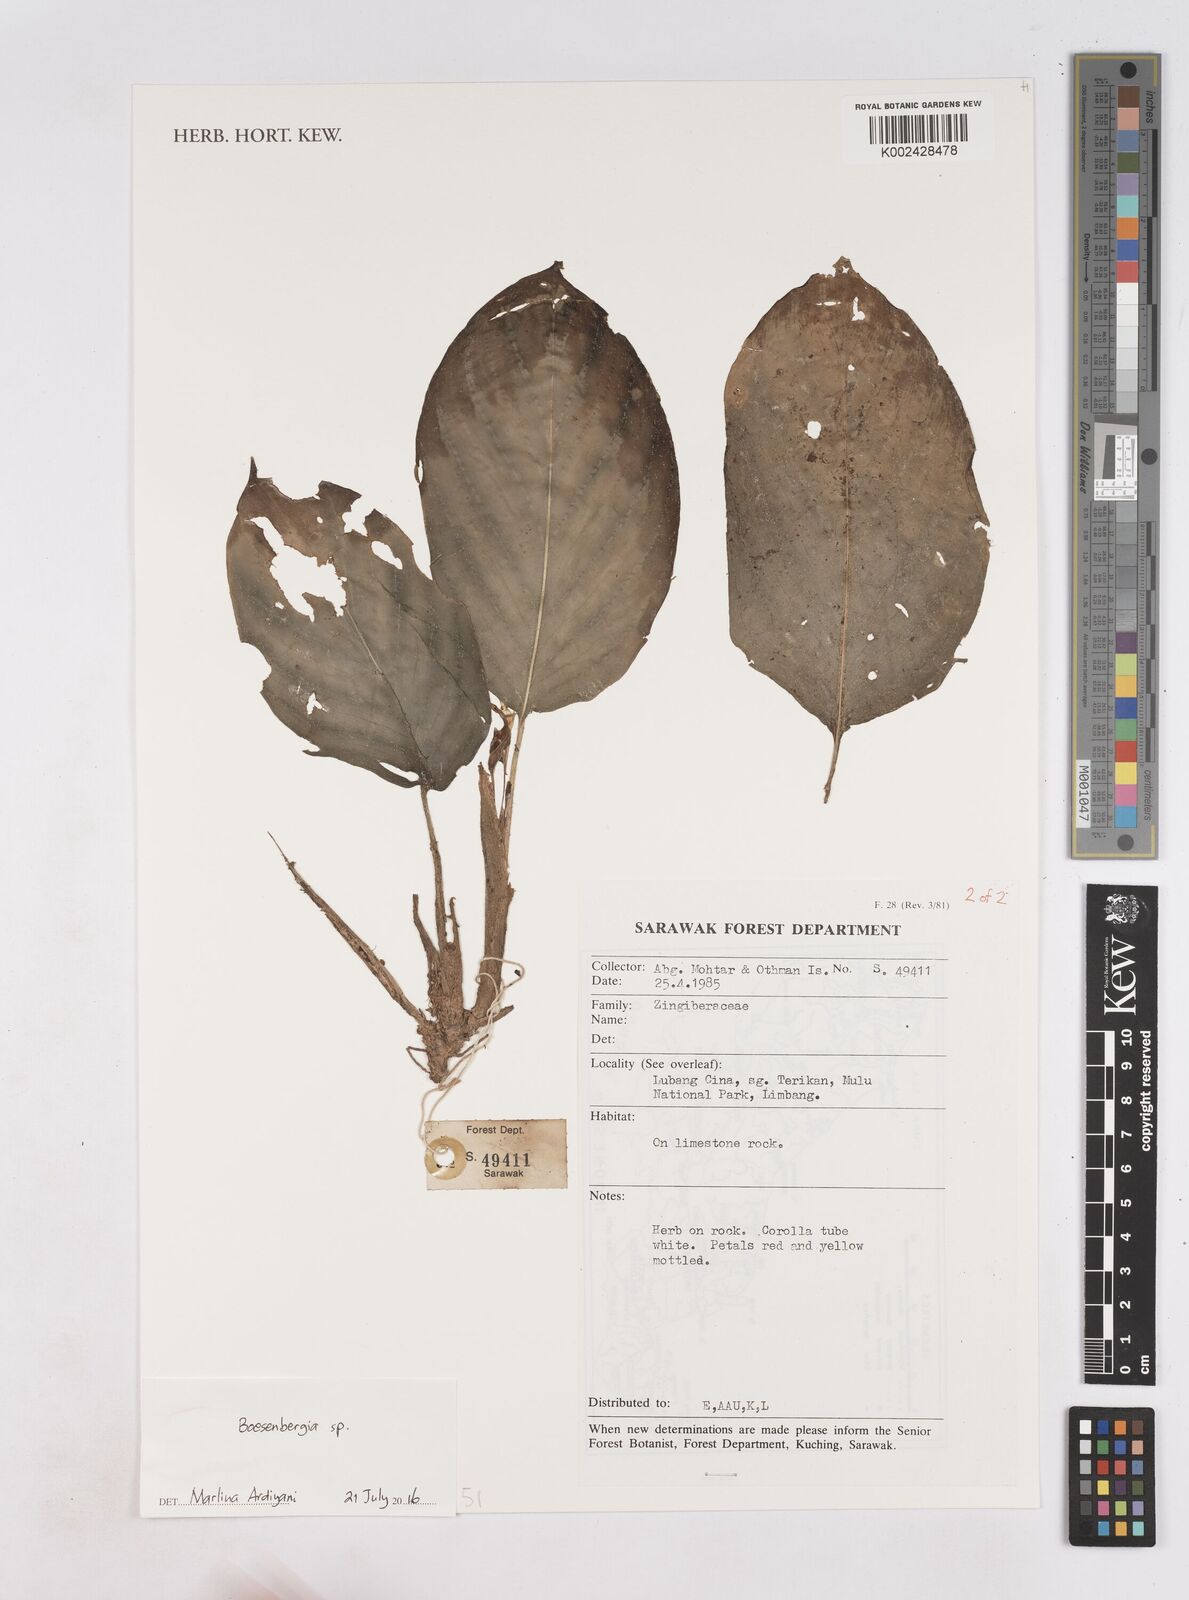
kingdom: Plantae
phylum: Tracheophyta
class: Liliopsida
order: Zingiberales
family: Zingiberaceae
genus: Boesenbergia
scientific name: Boesenbergia
